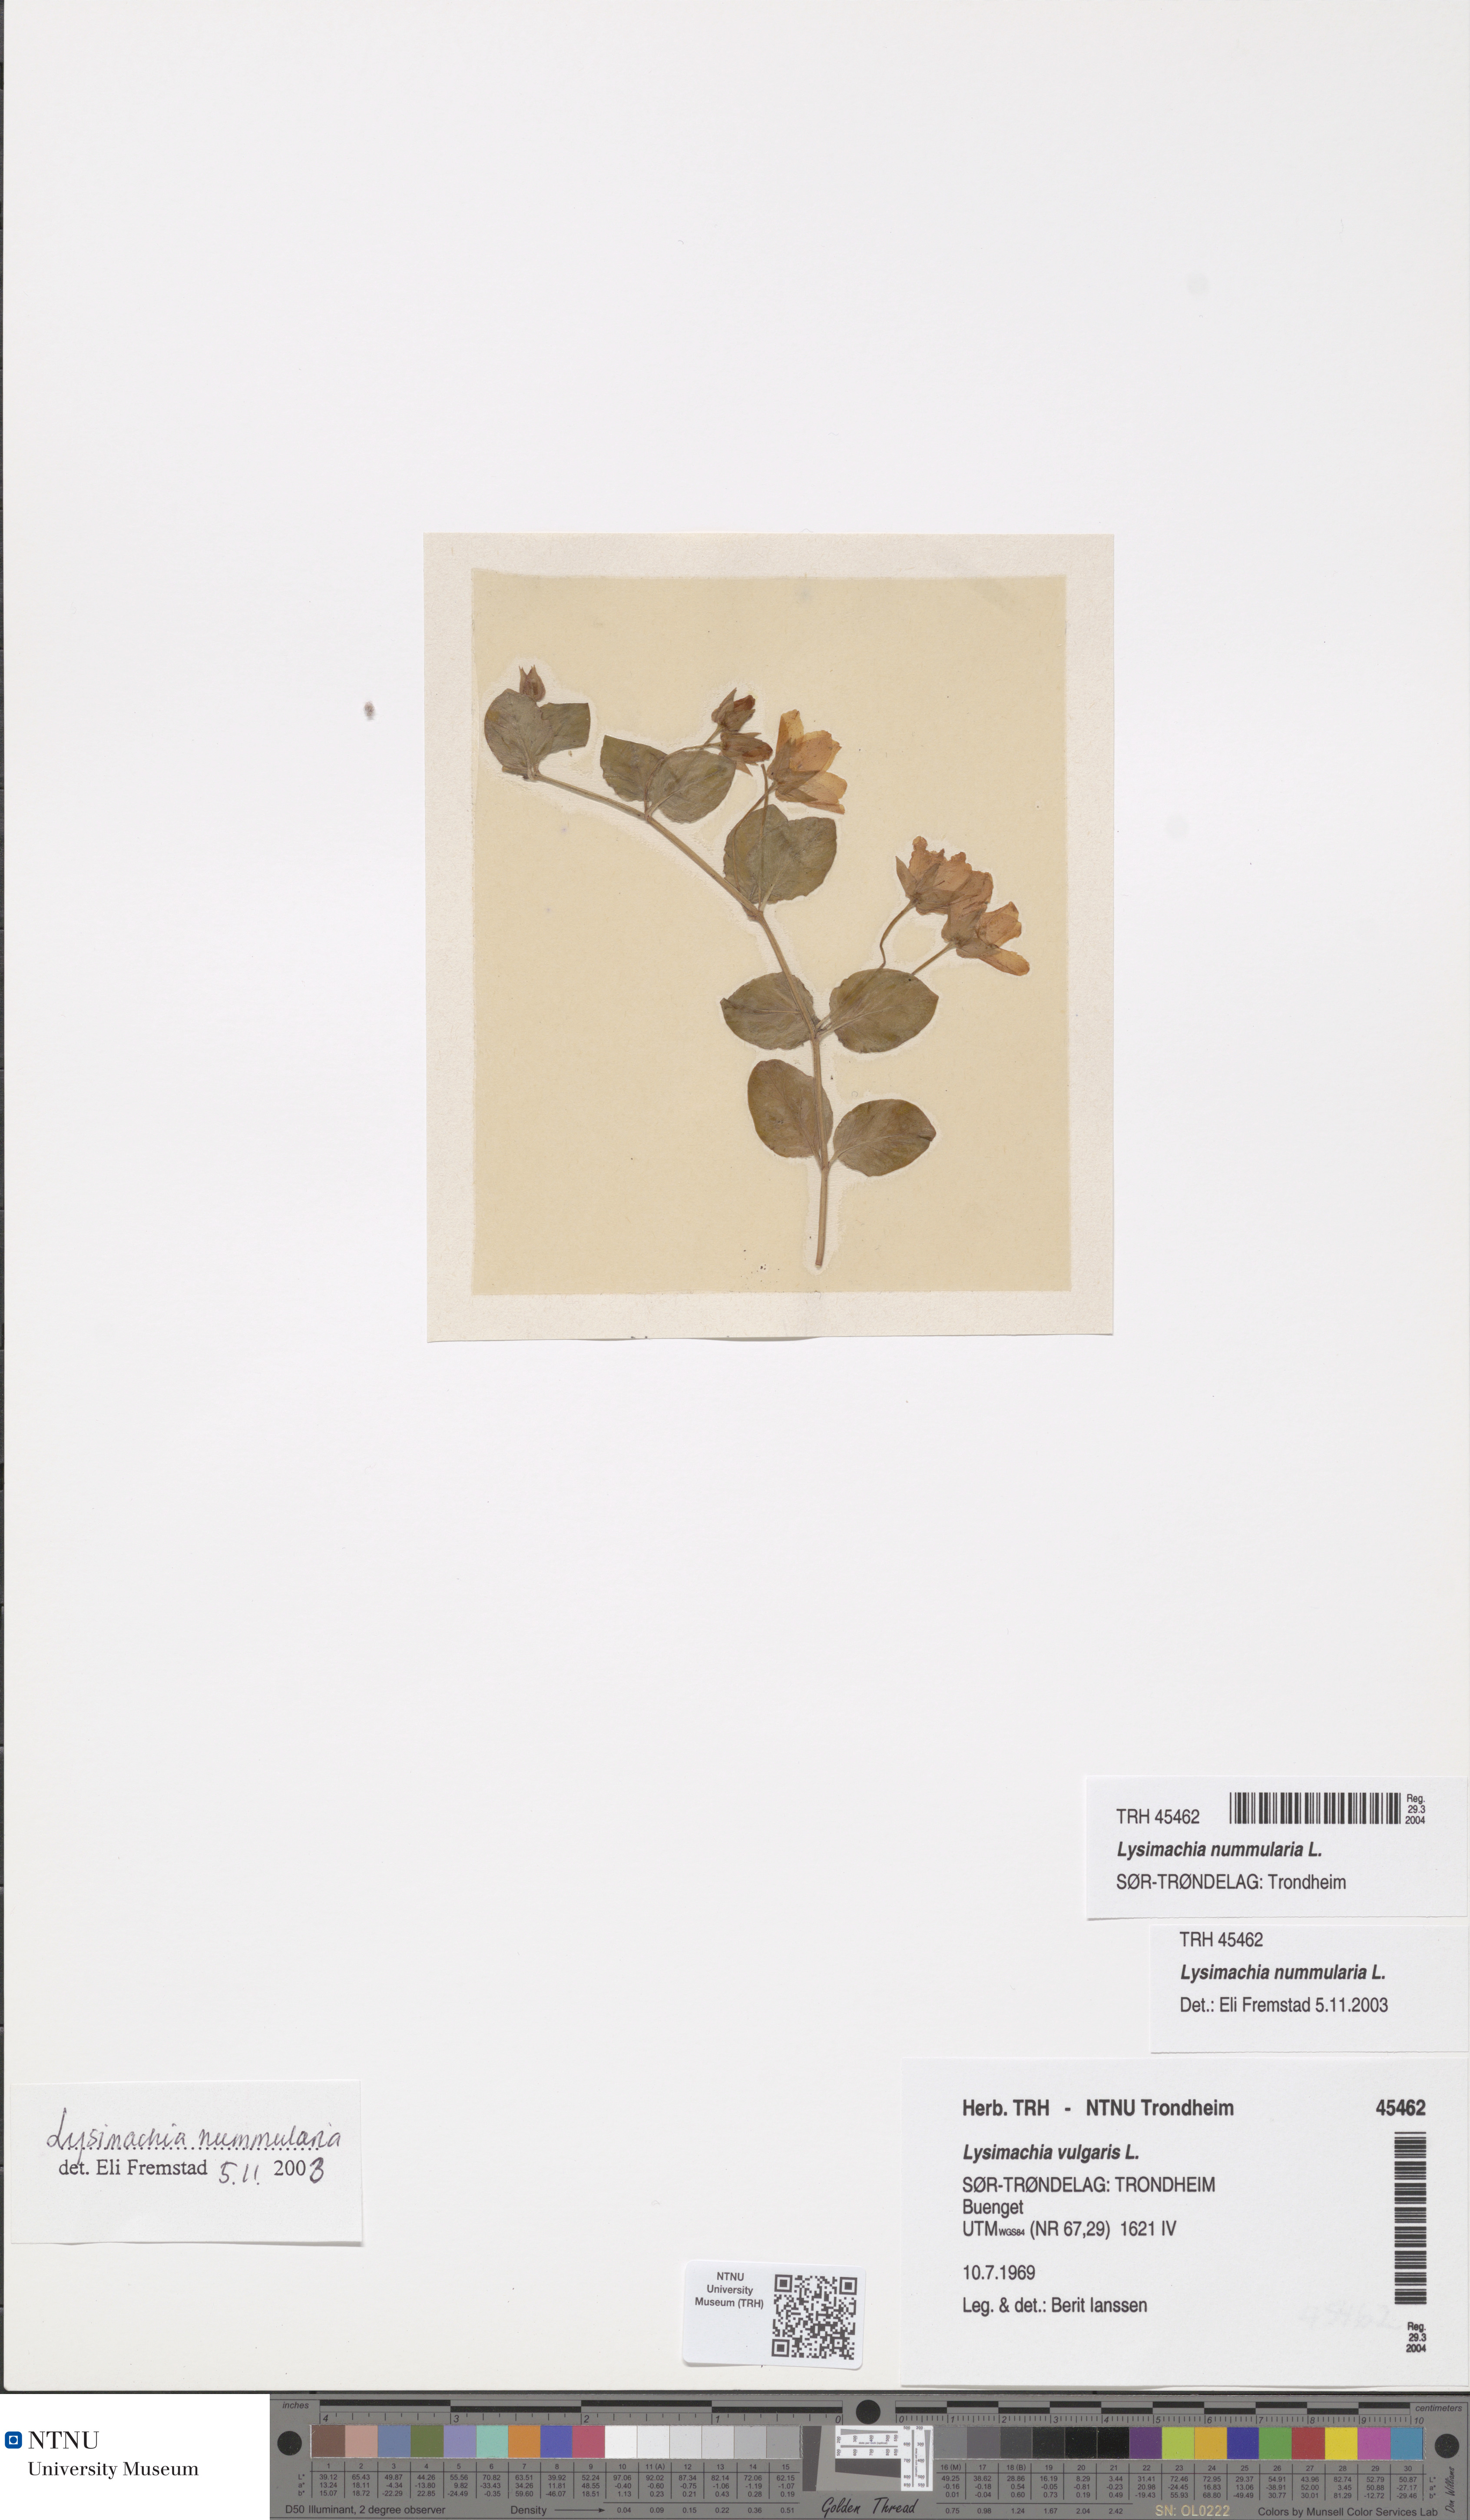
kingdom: Plantae
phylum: Tracheophyta
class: Magnoliopsida
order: Ericales
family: Primulaceae
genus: Lysimachia
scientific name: Lysimachia nummularia
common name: Moneywort
